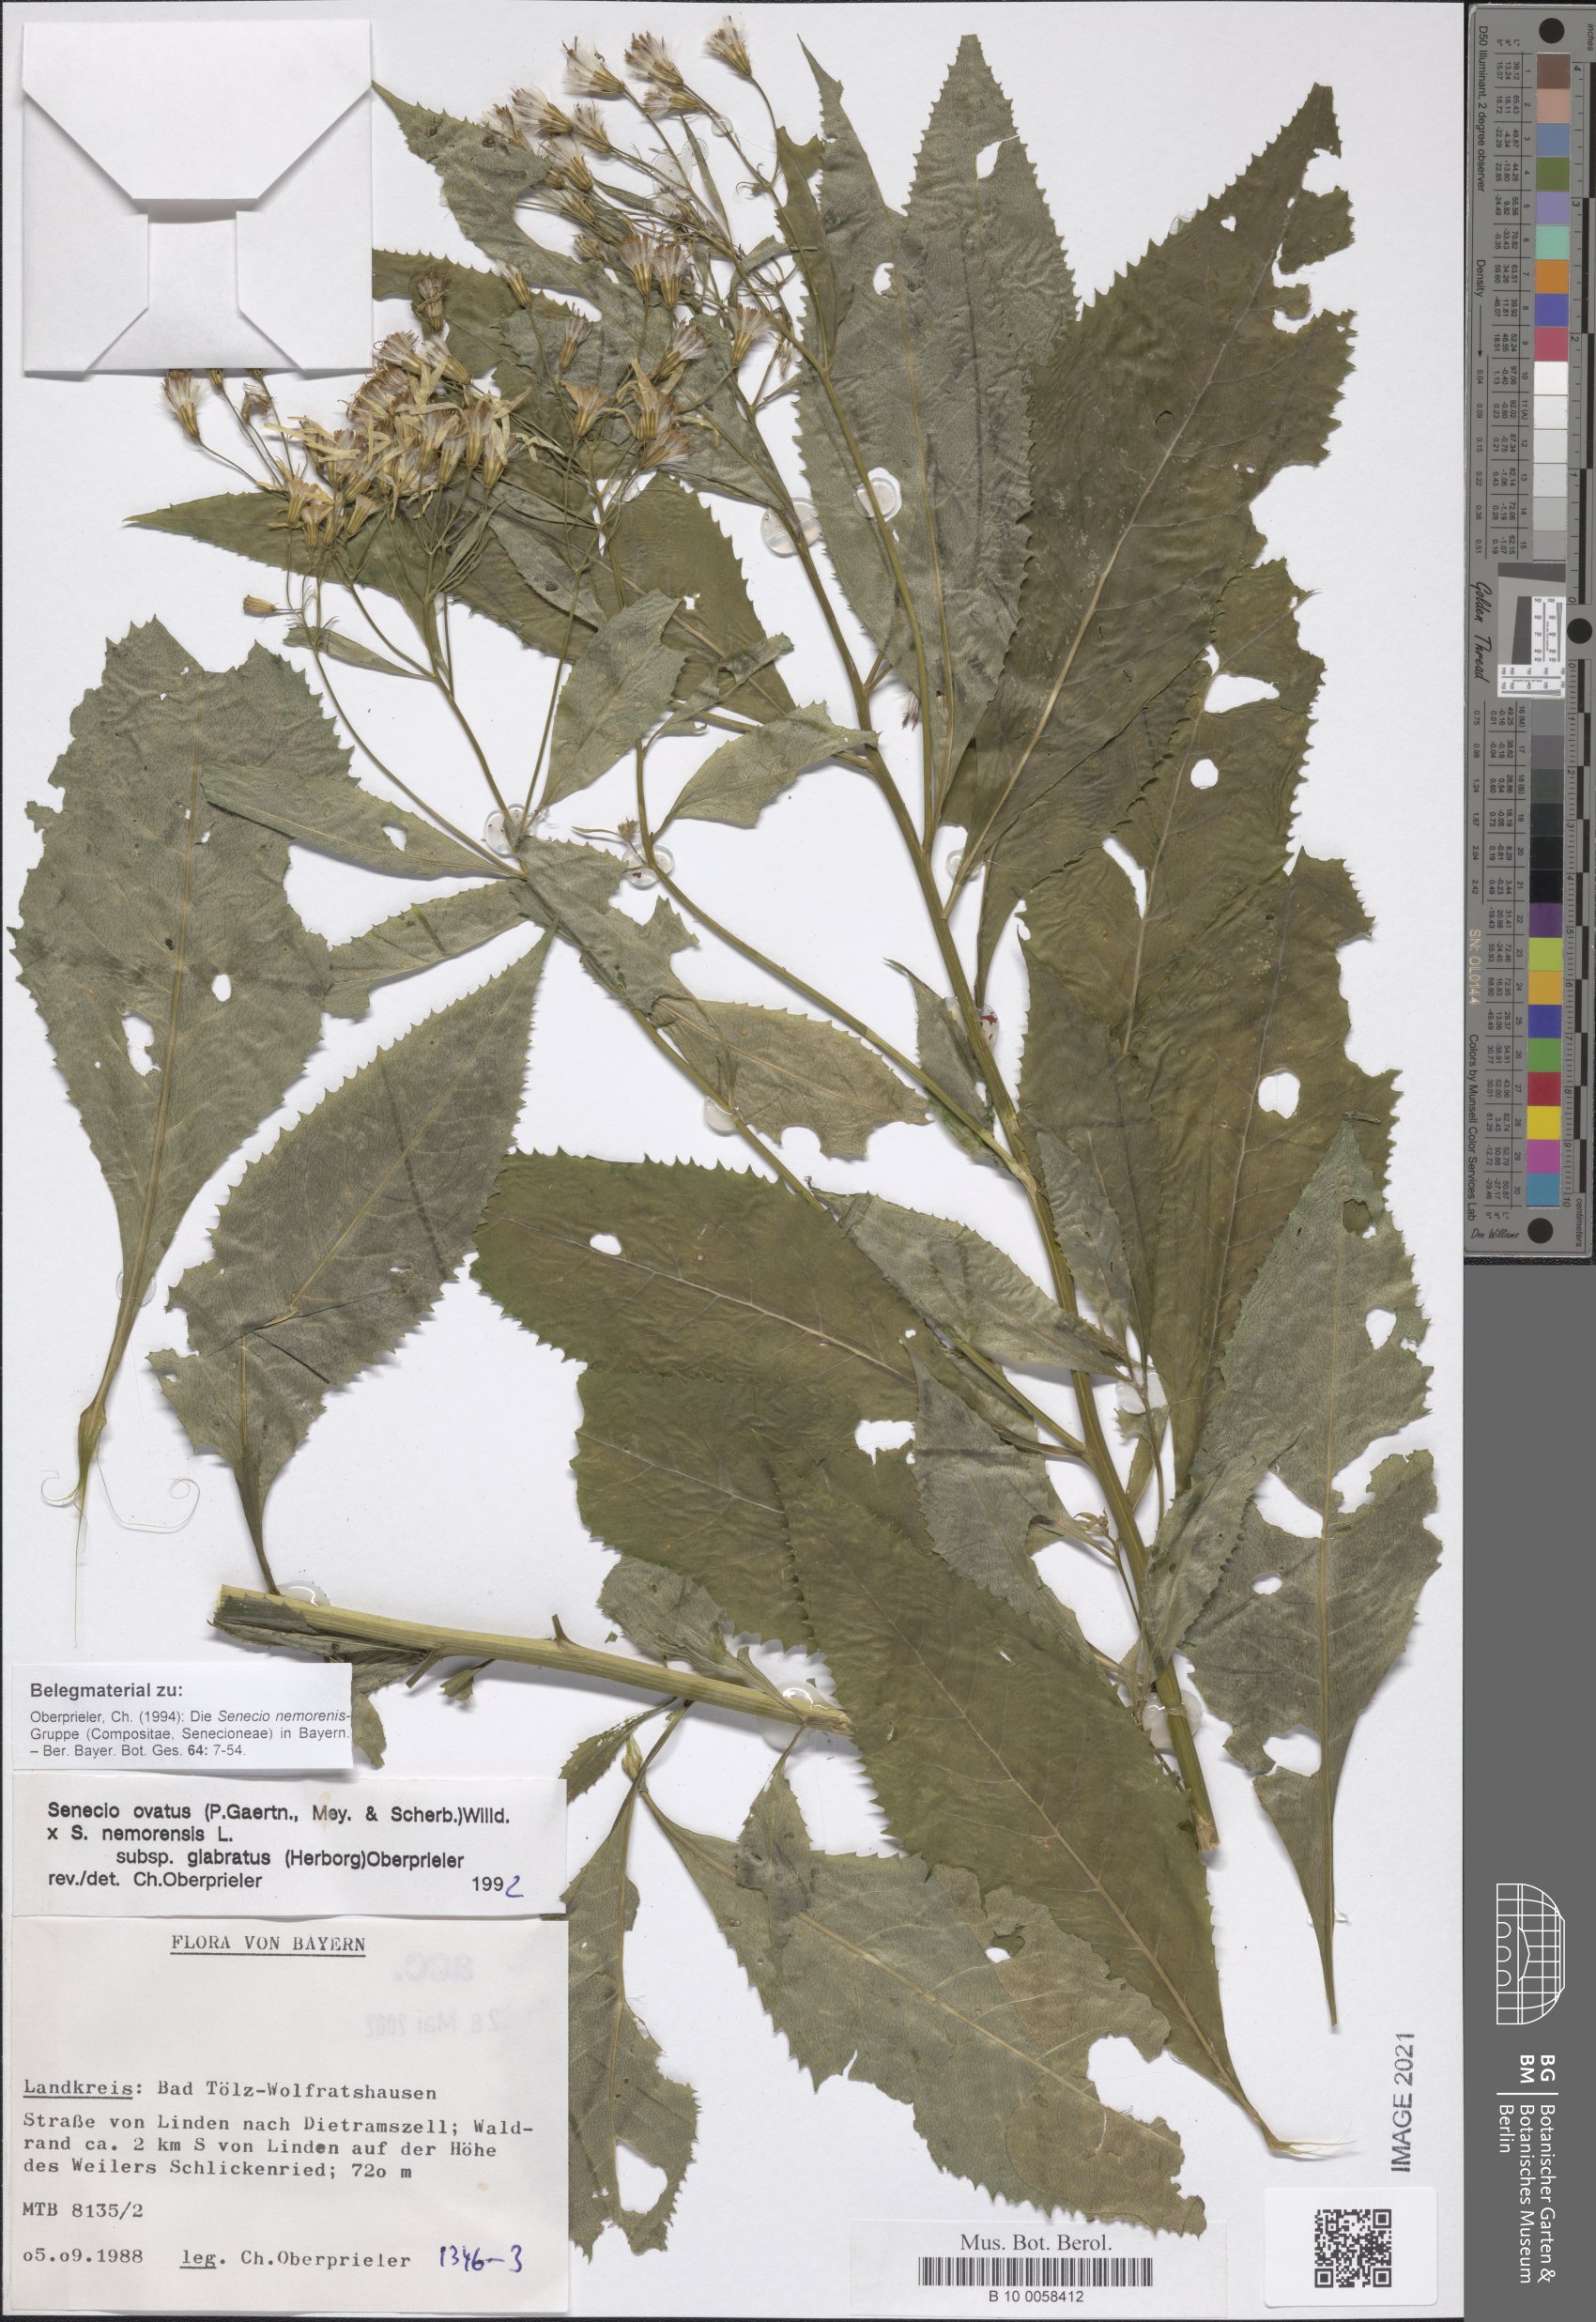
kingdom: Plantae
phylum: Tracheophyta
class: Magnoliopsida
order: Asterales
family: Asteraceae
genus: Senecio
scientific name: Senecio ovatus
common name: Wood ragwort
